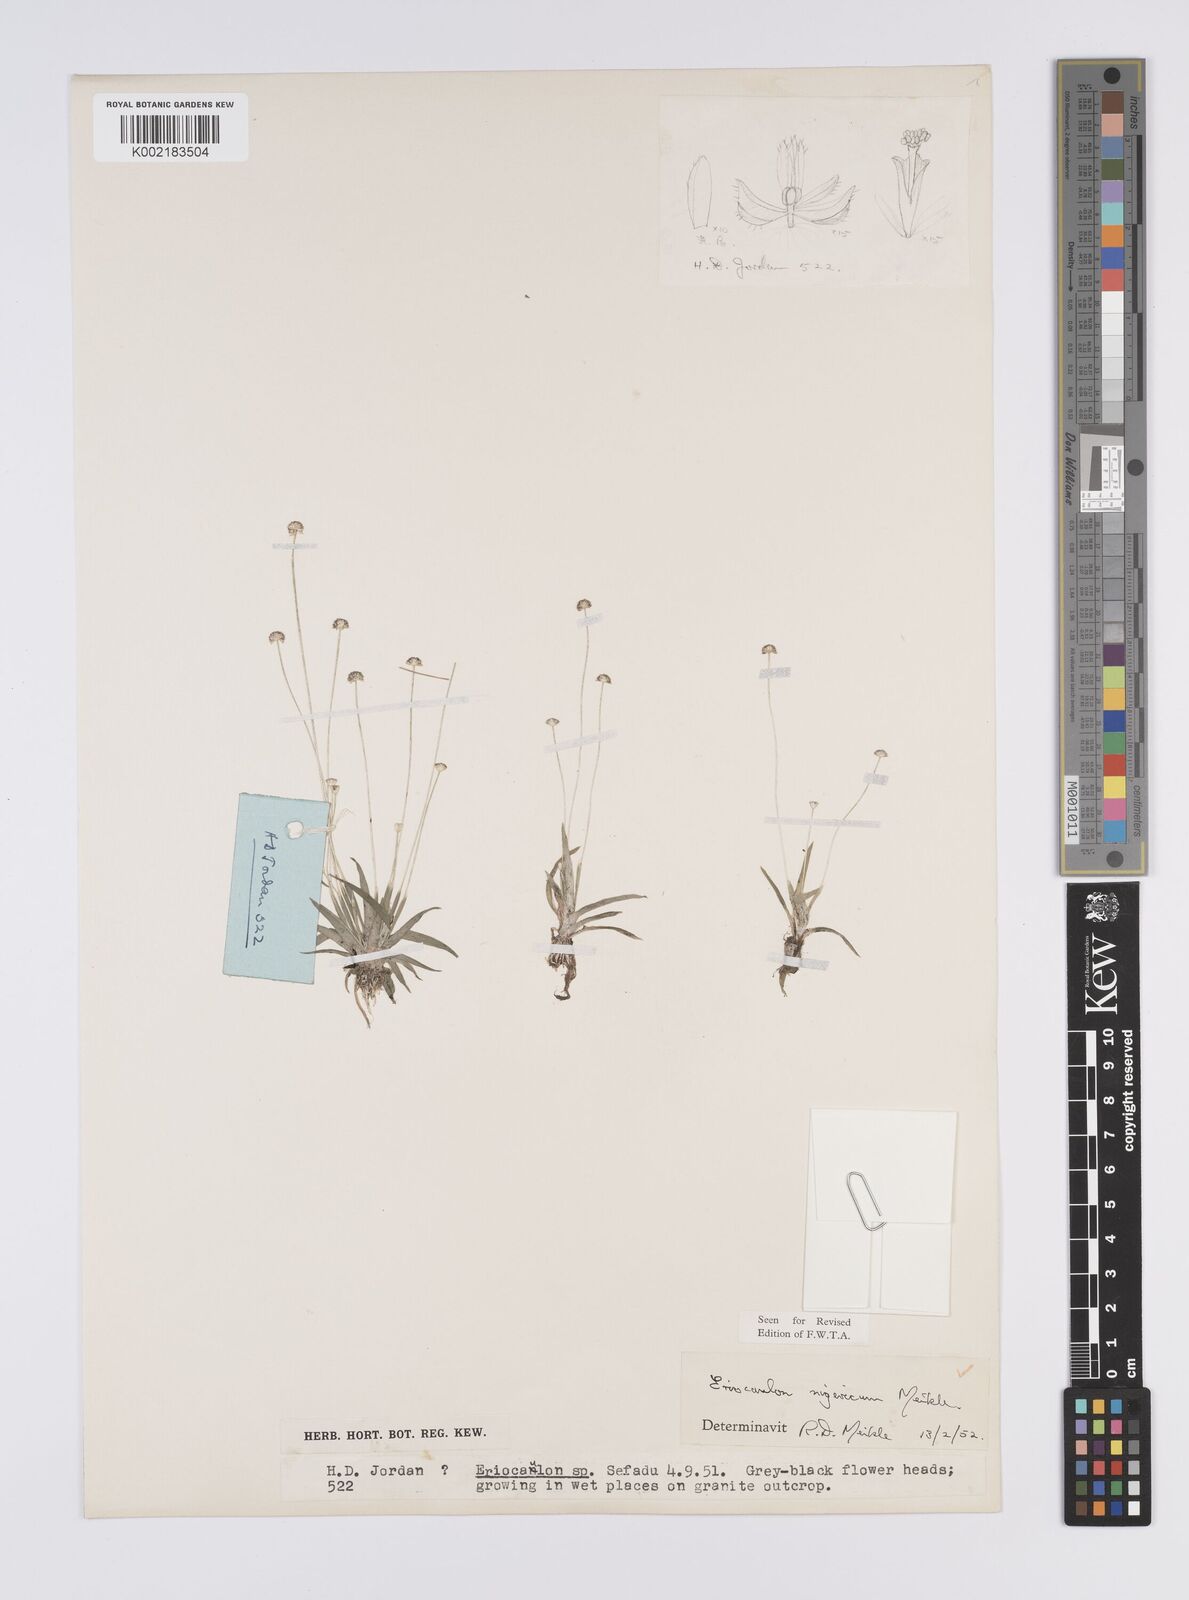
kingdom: Plantae
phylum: Tracheophyta
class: Liliopsida
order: Poales
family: Eriocaulaceae
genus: Eriocaulon
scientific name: Eriocaulon nigericum
